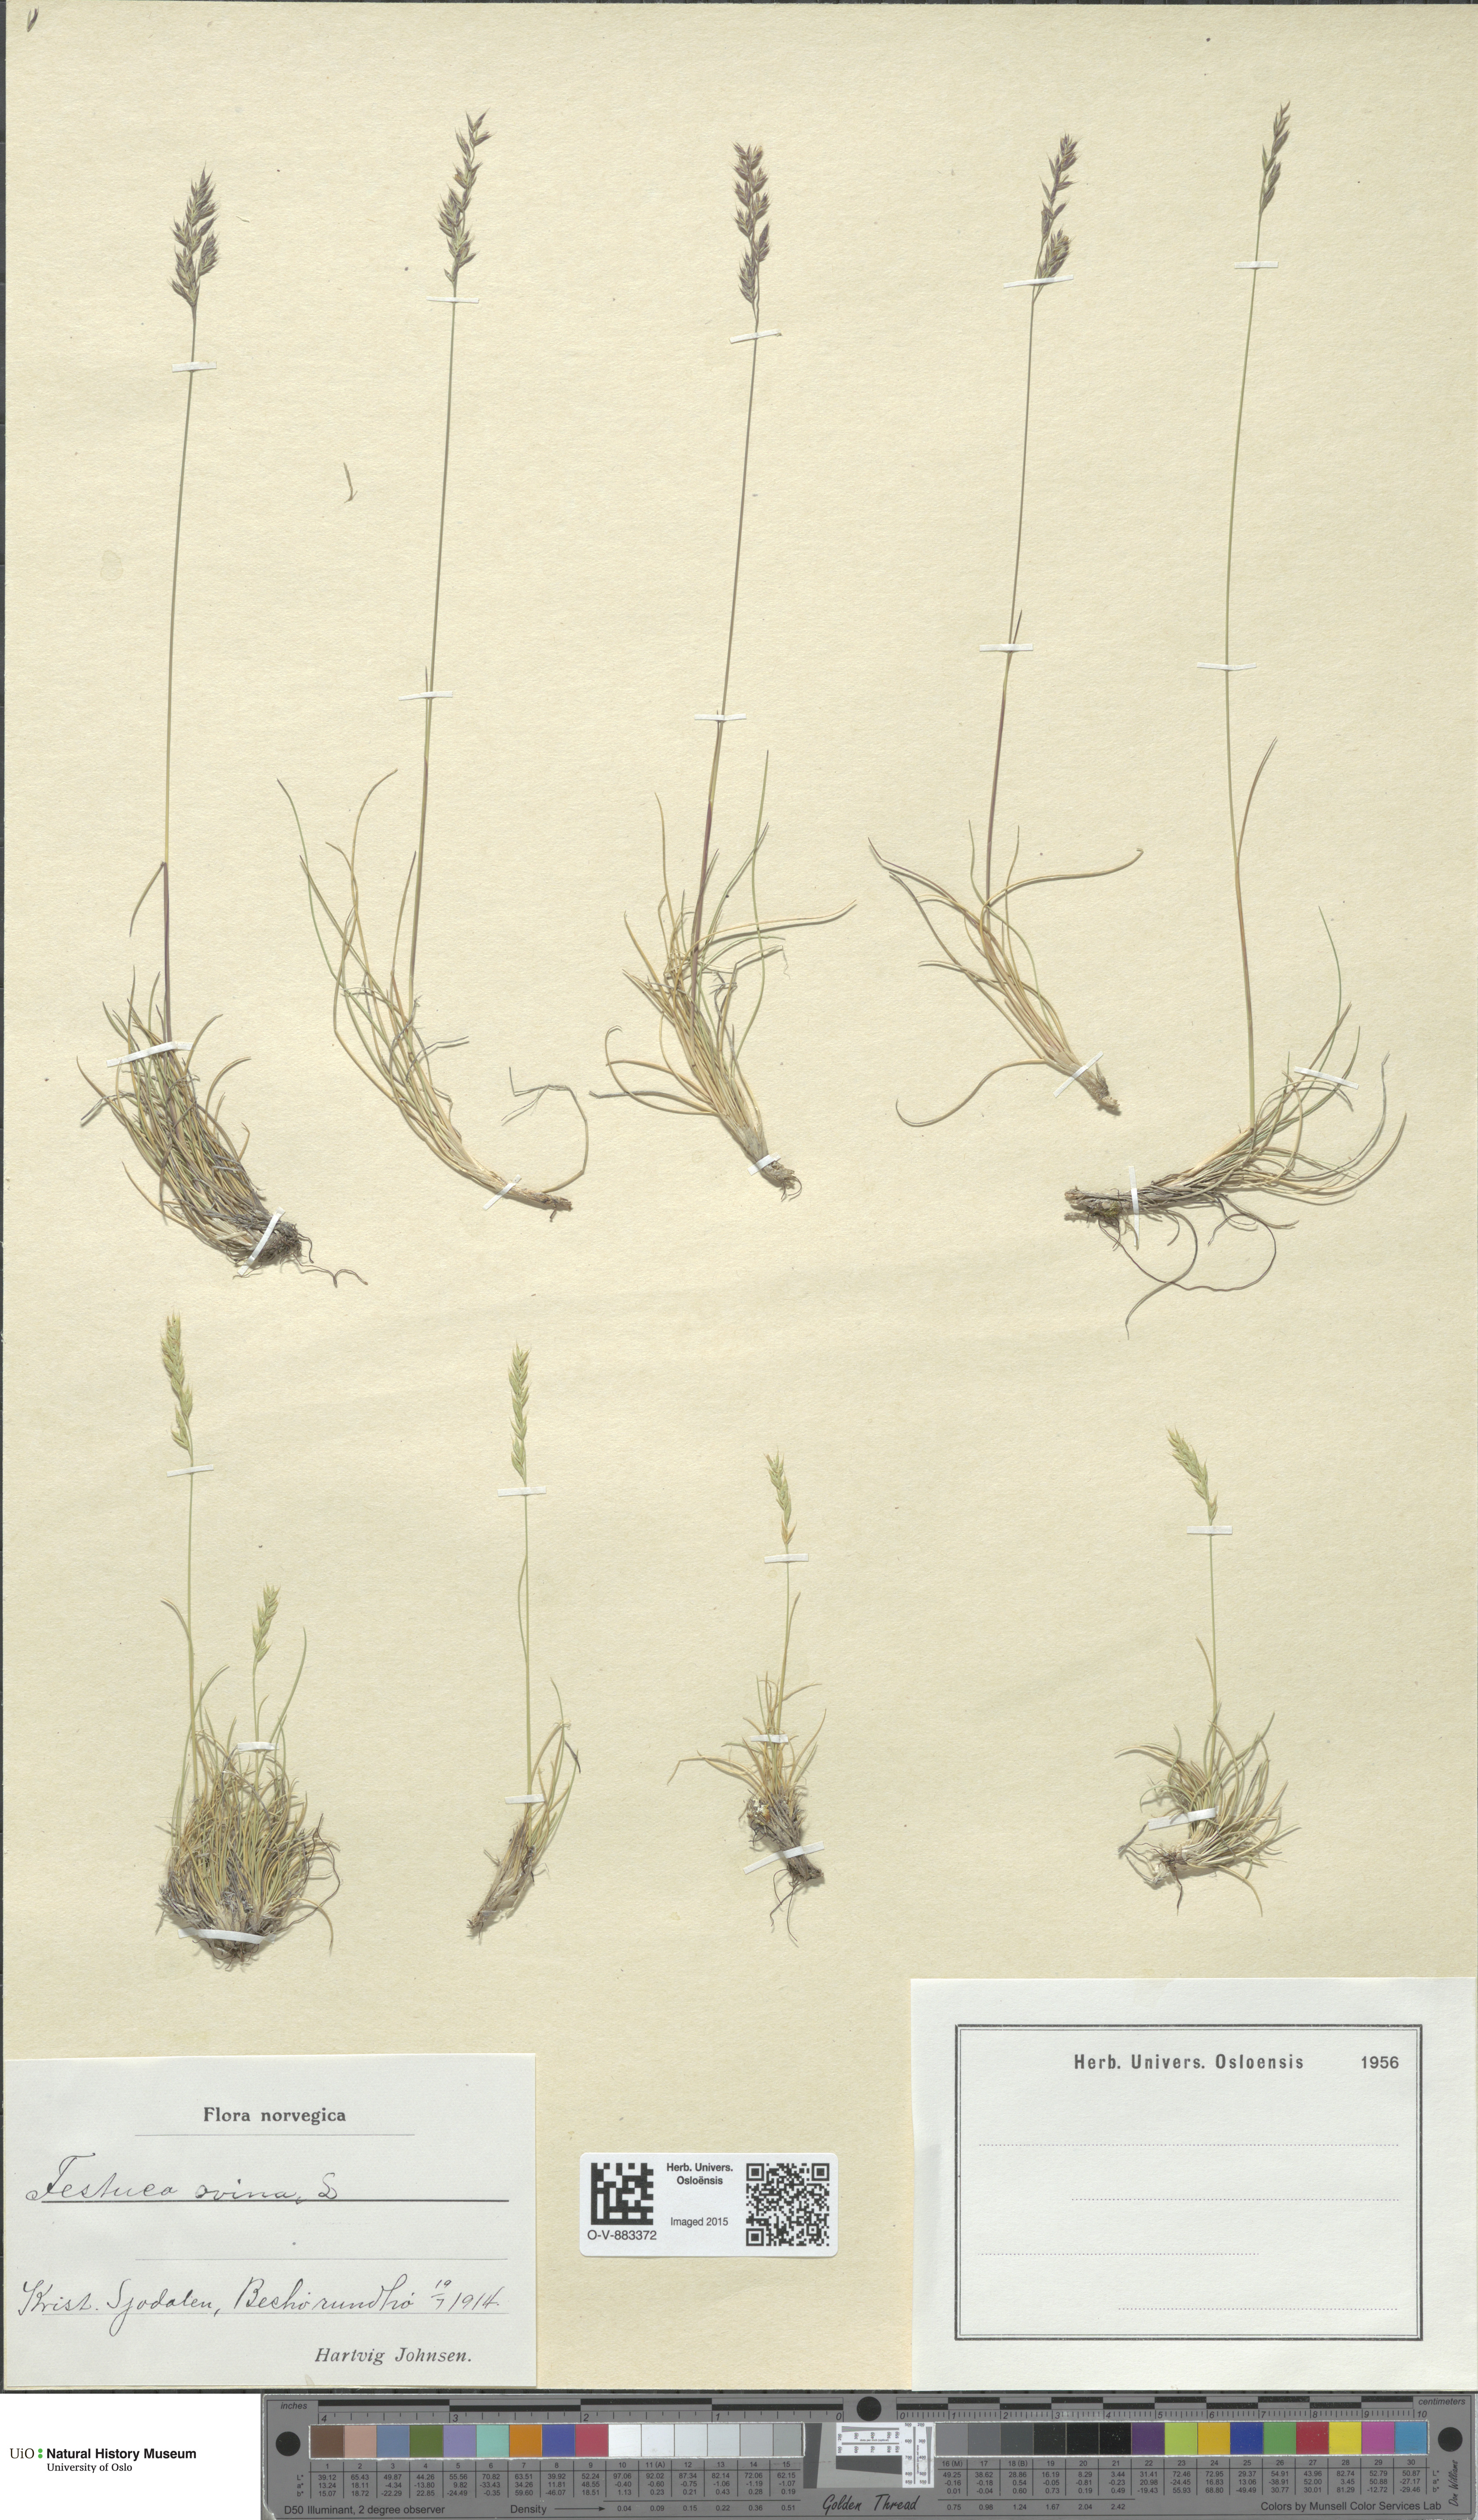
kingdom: Plantae
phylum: Tracheophyta
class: Liliopsida
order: Poales
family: Poaceae
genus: Festuca
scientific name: Festuca ovina
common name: Sheep fescue
